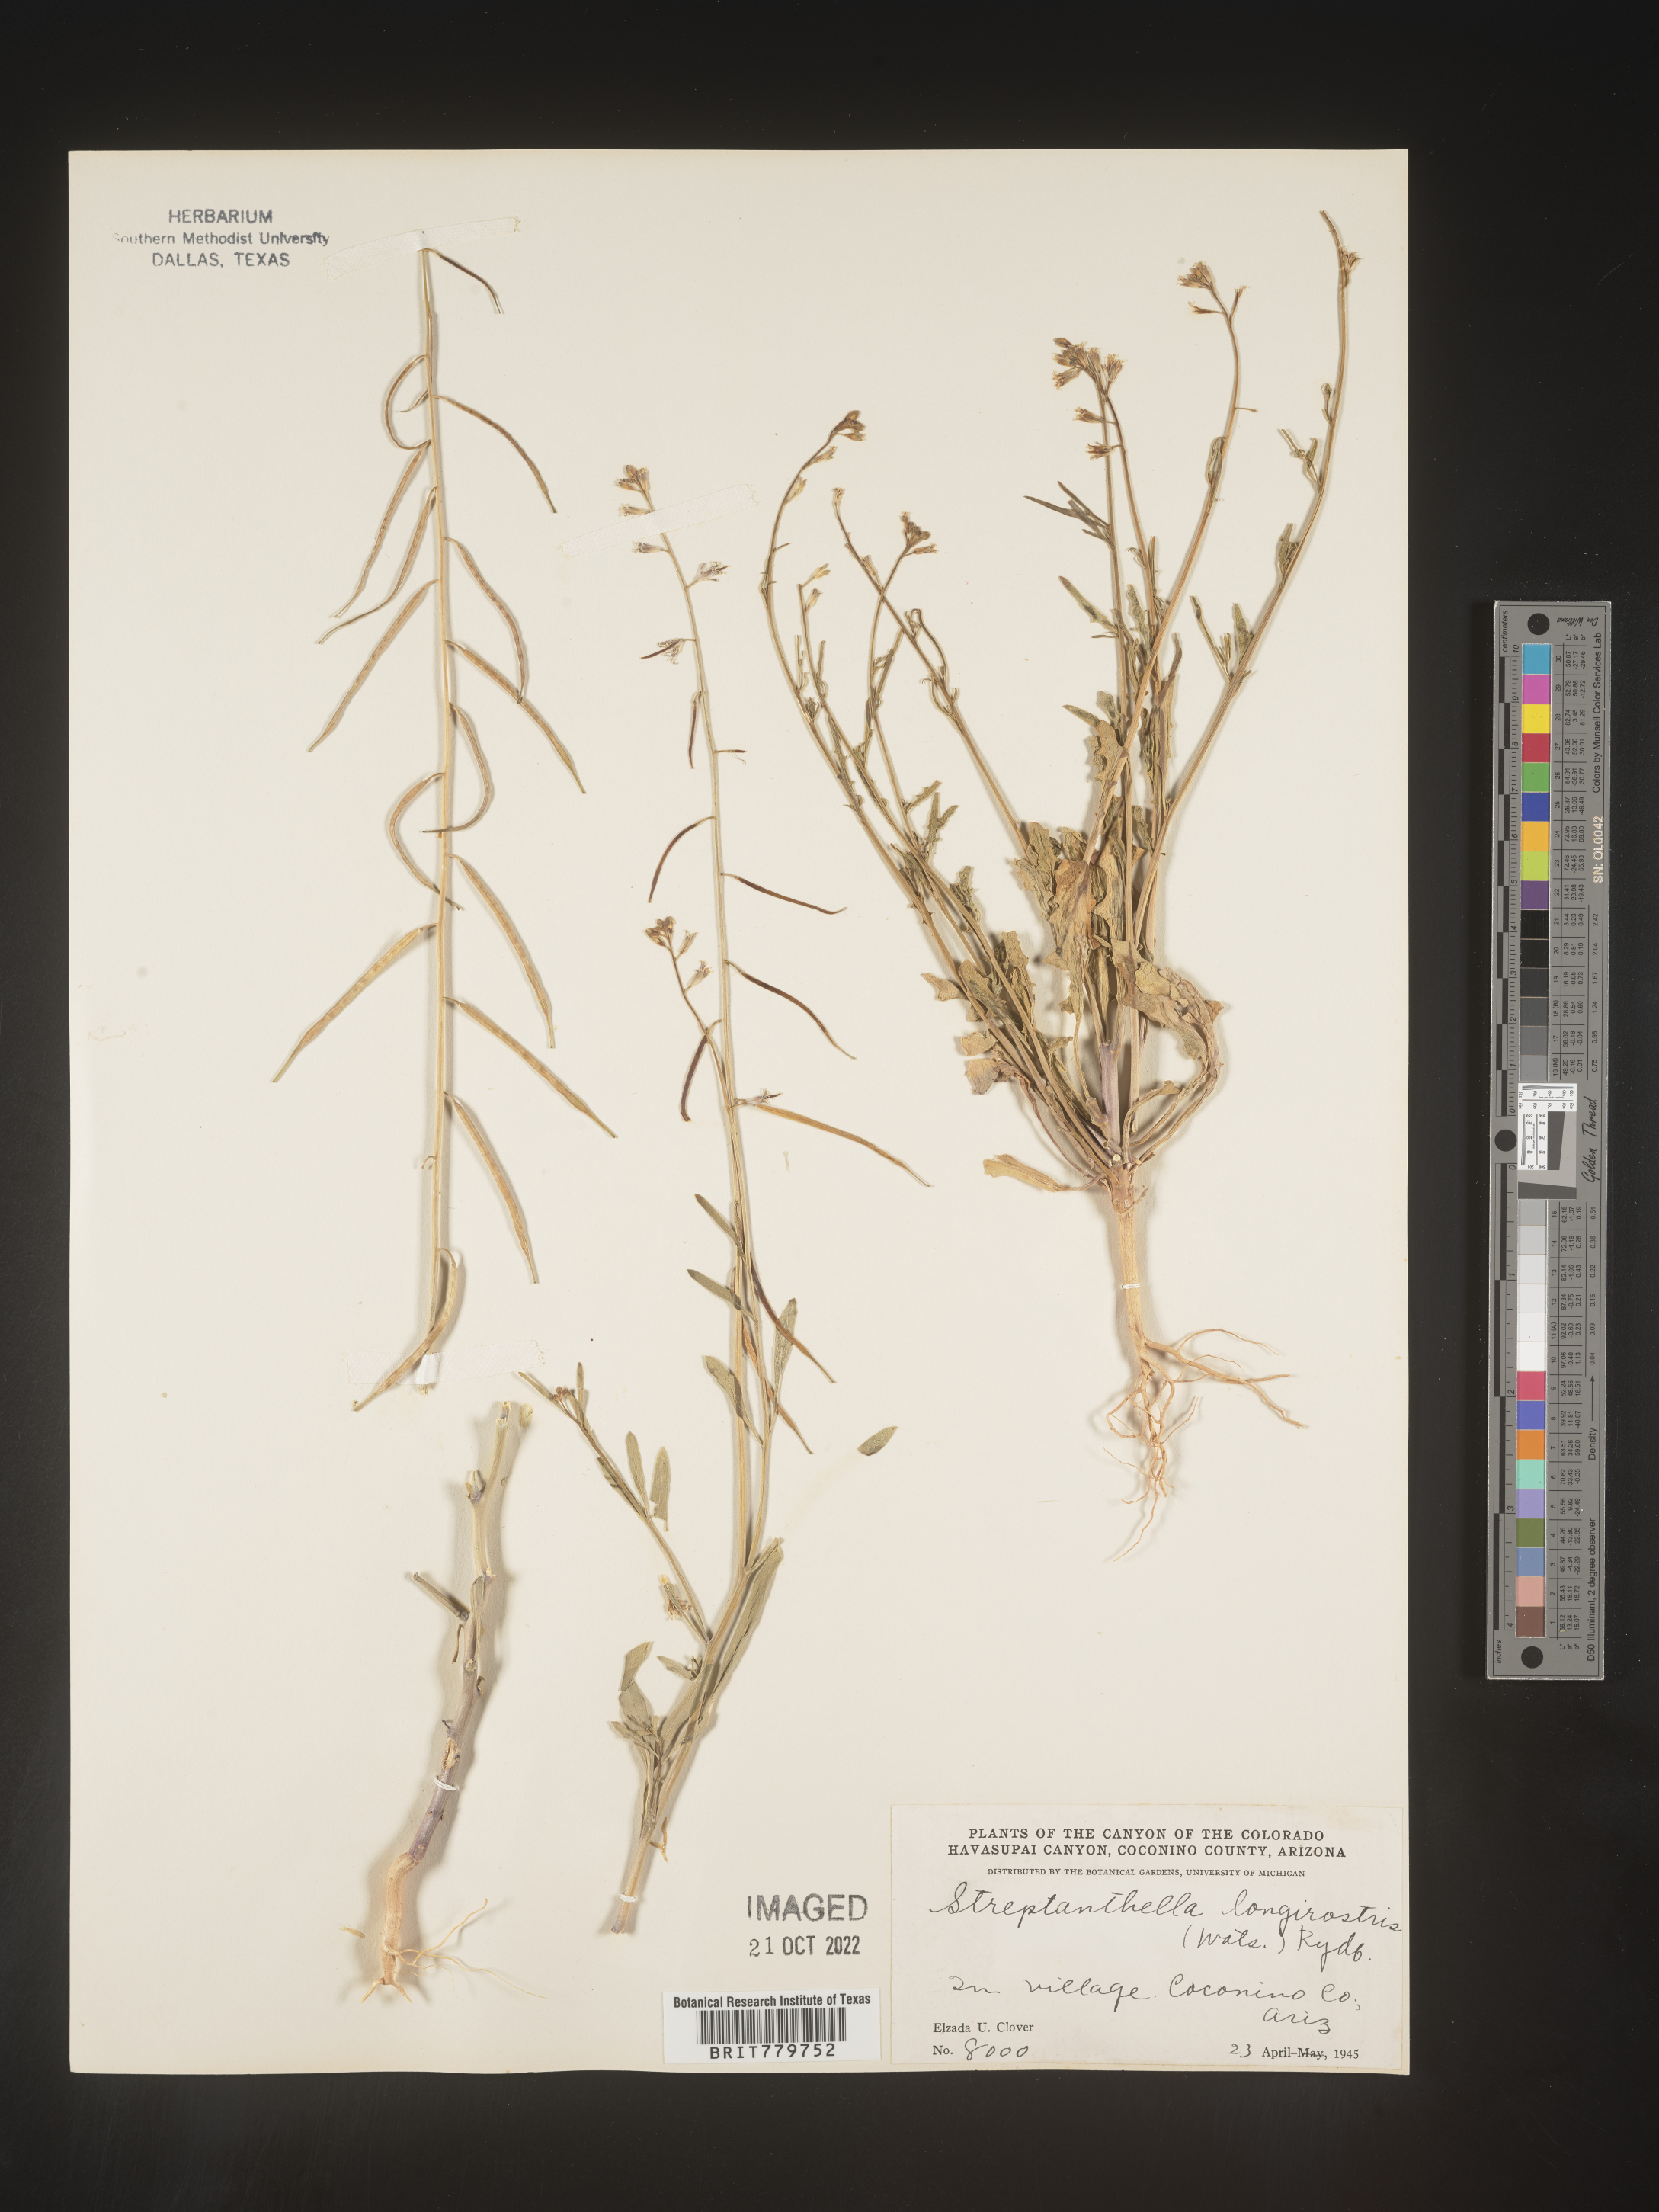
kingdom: Plantae
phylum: Tracheophyta
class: Magnoliopsida
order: Brassicales
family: Brassicaceae
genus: Streptanthus
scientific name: Streptanthus
